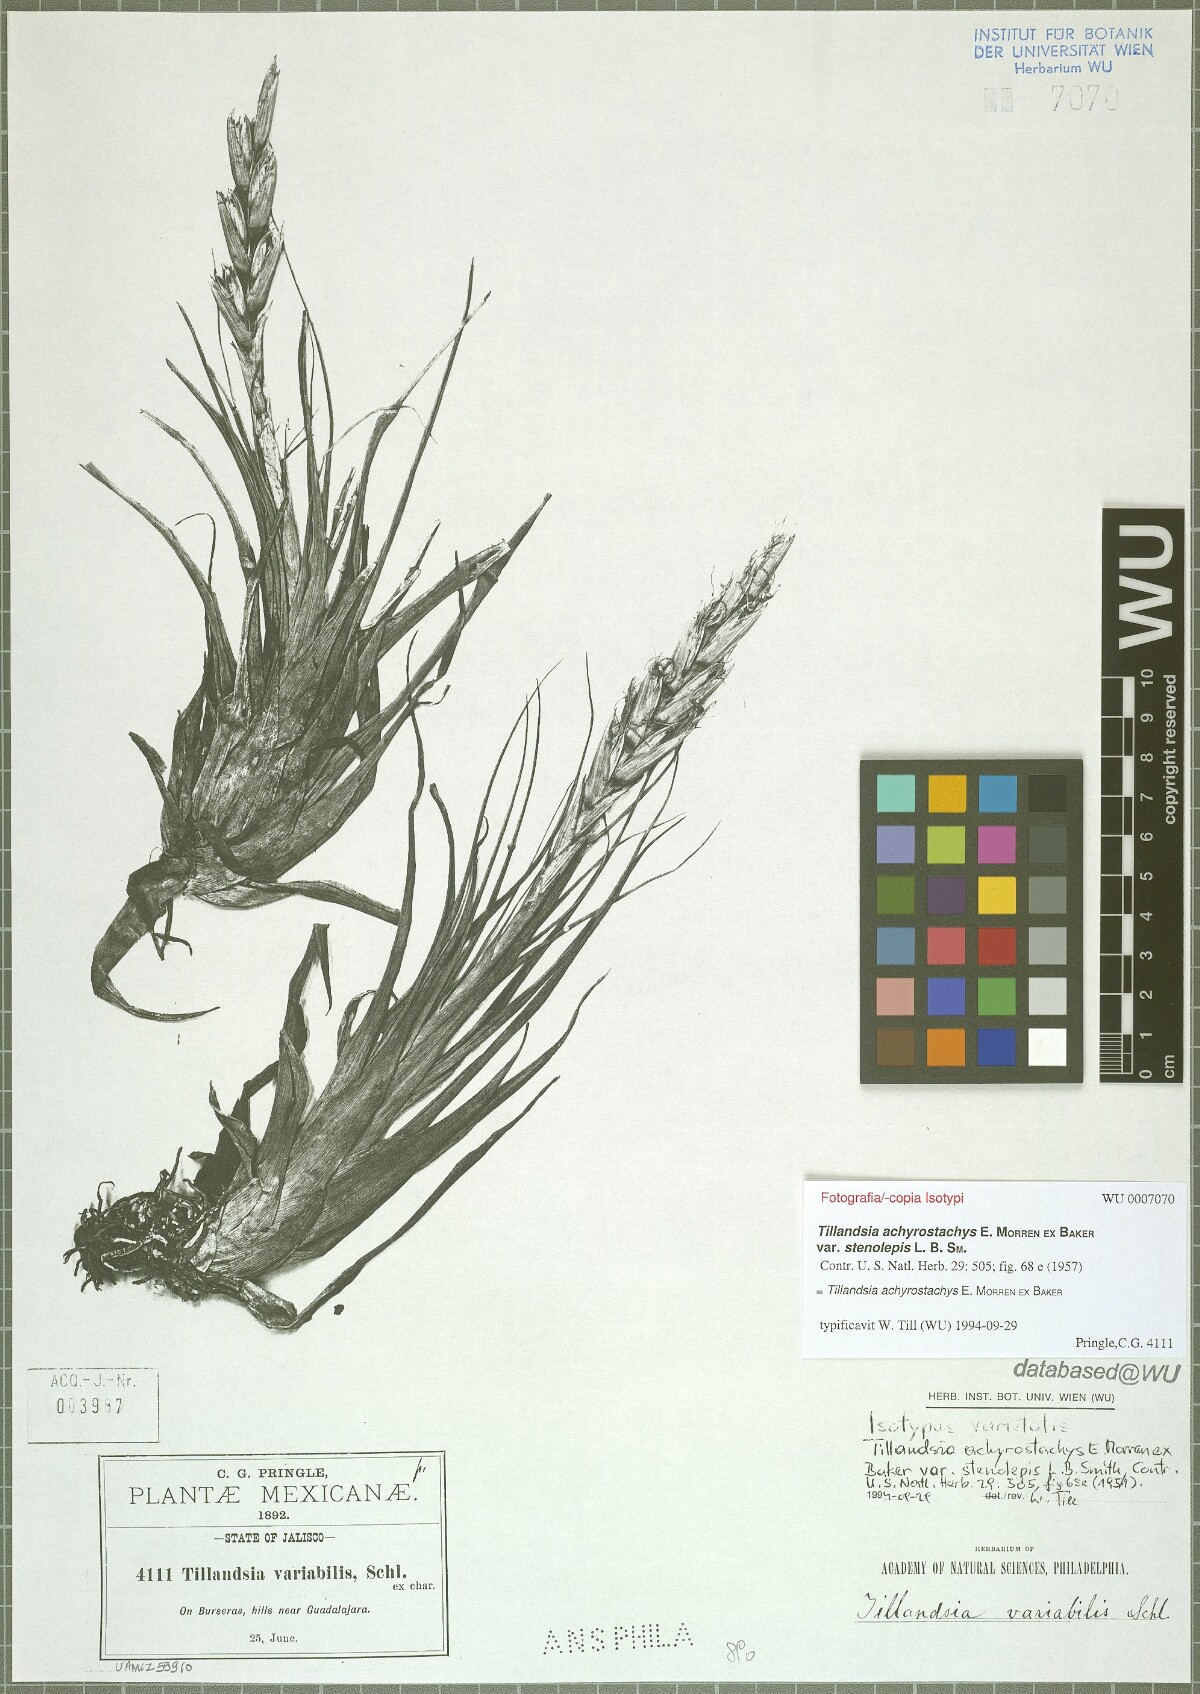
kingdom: Plantae
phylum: Tracheophyta
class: Liliopsida
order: Poales
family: Bromeliaceae
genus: Tillandsia
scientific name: Tillandsia achyrostachys
